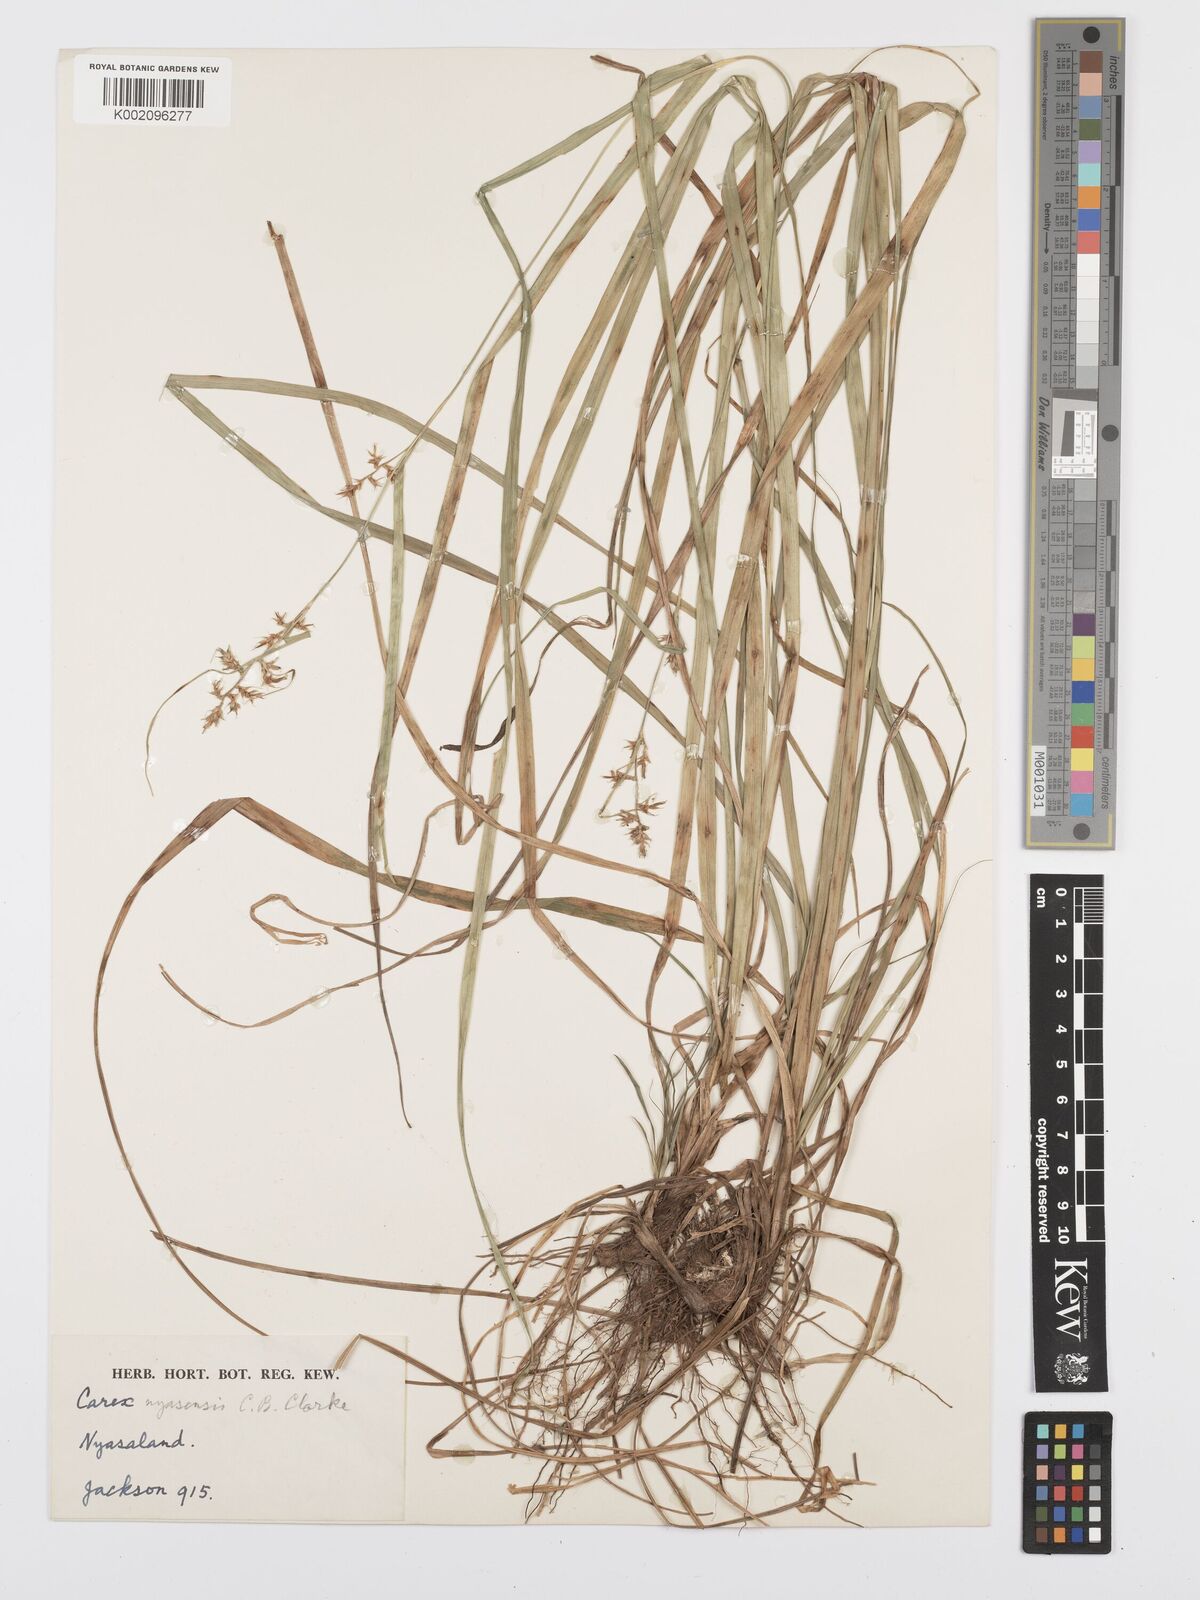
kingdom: Plantae
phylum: Tracheophyta
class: Liliopsida
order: Poales
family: Cyperaceae
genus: Carex
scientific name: Carex spicatopaniculata
